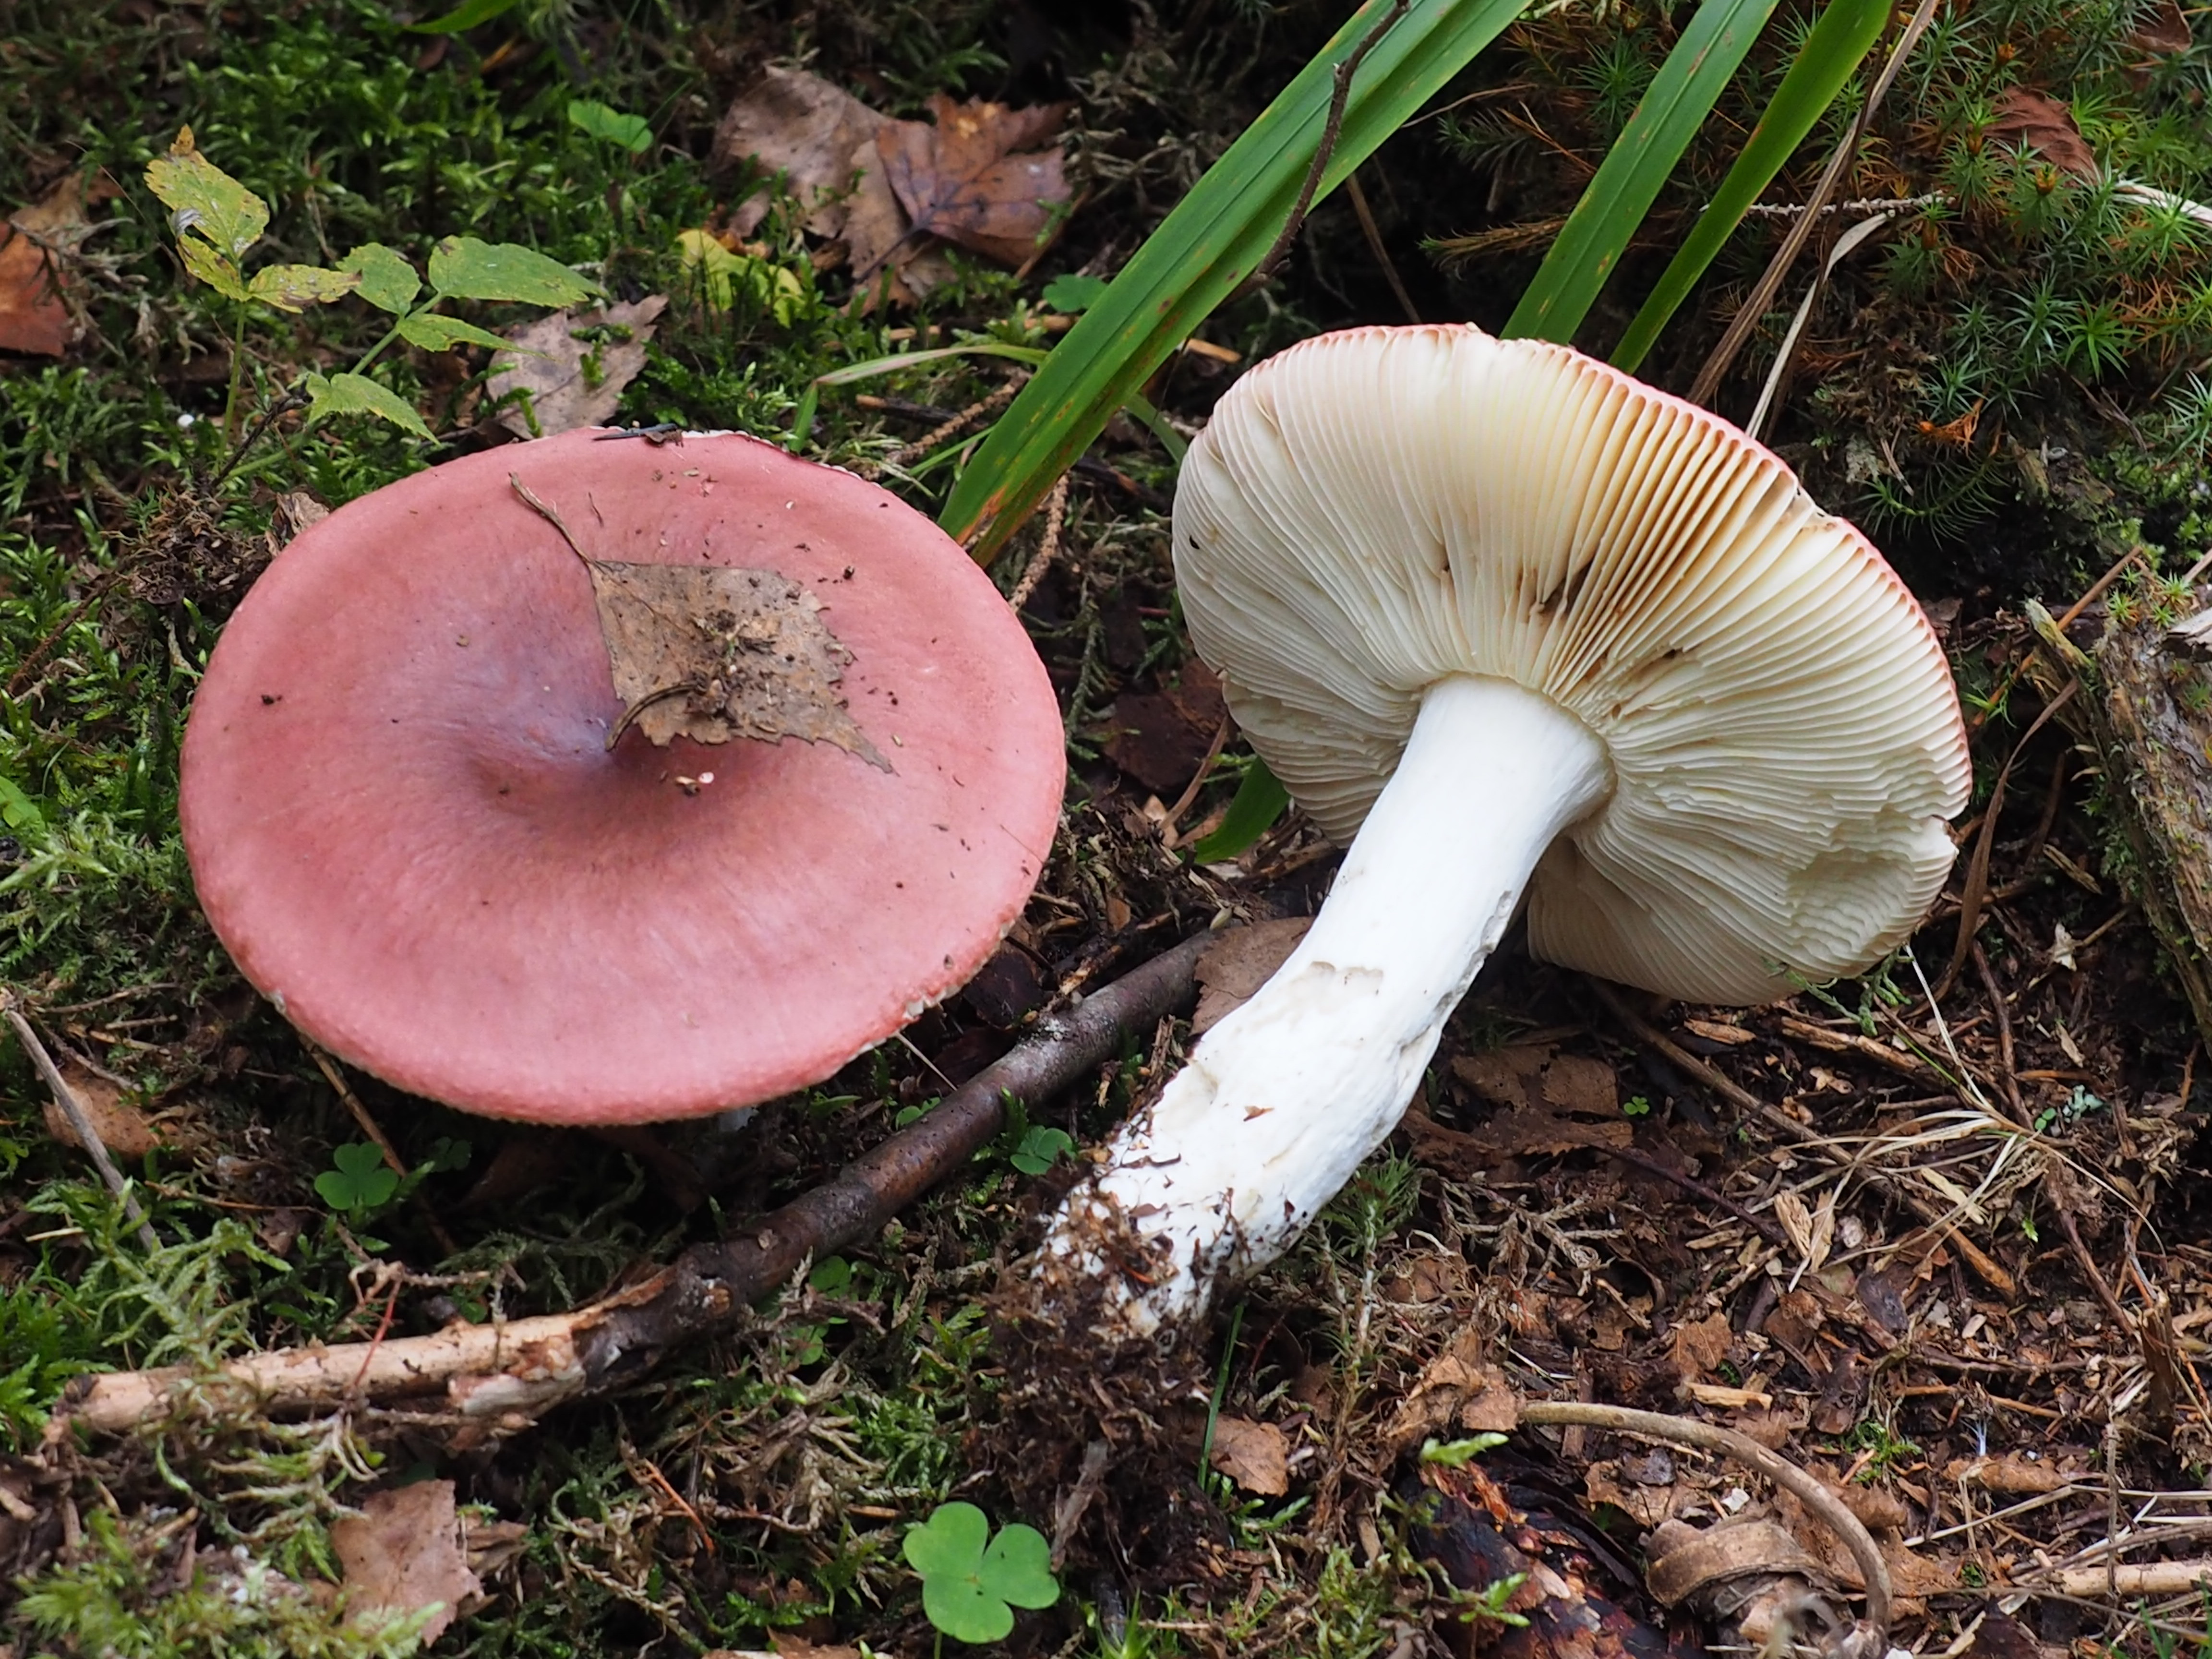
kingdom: Fungi
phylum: Basidiomycota
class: Agaricomycetes
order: Russulales
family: Russulaceae
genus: Russula
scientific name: Russula
